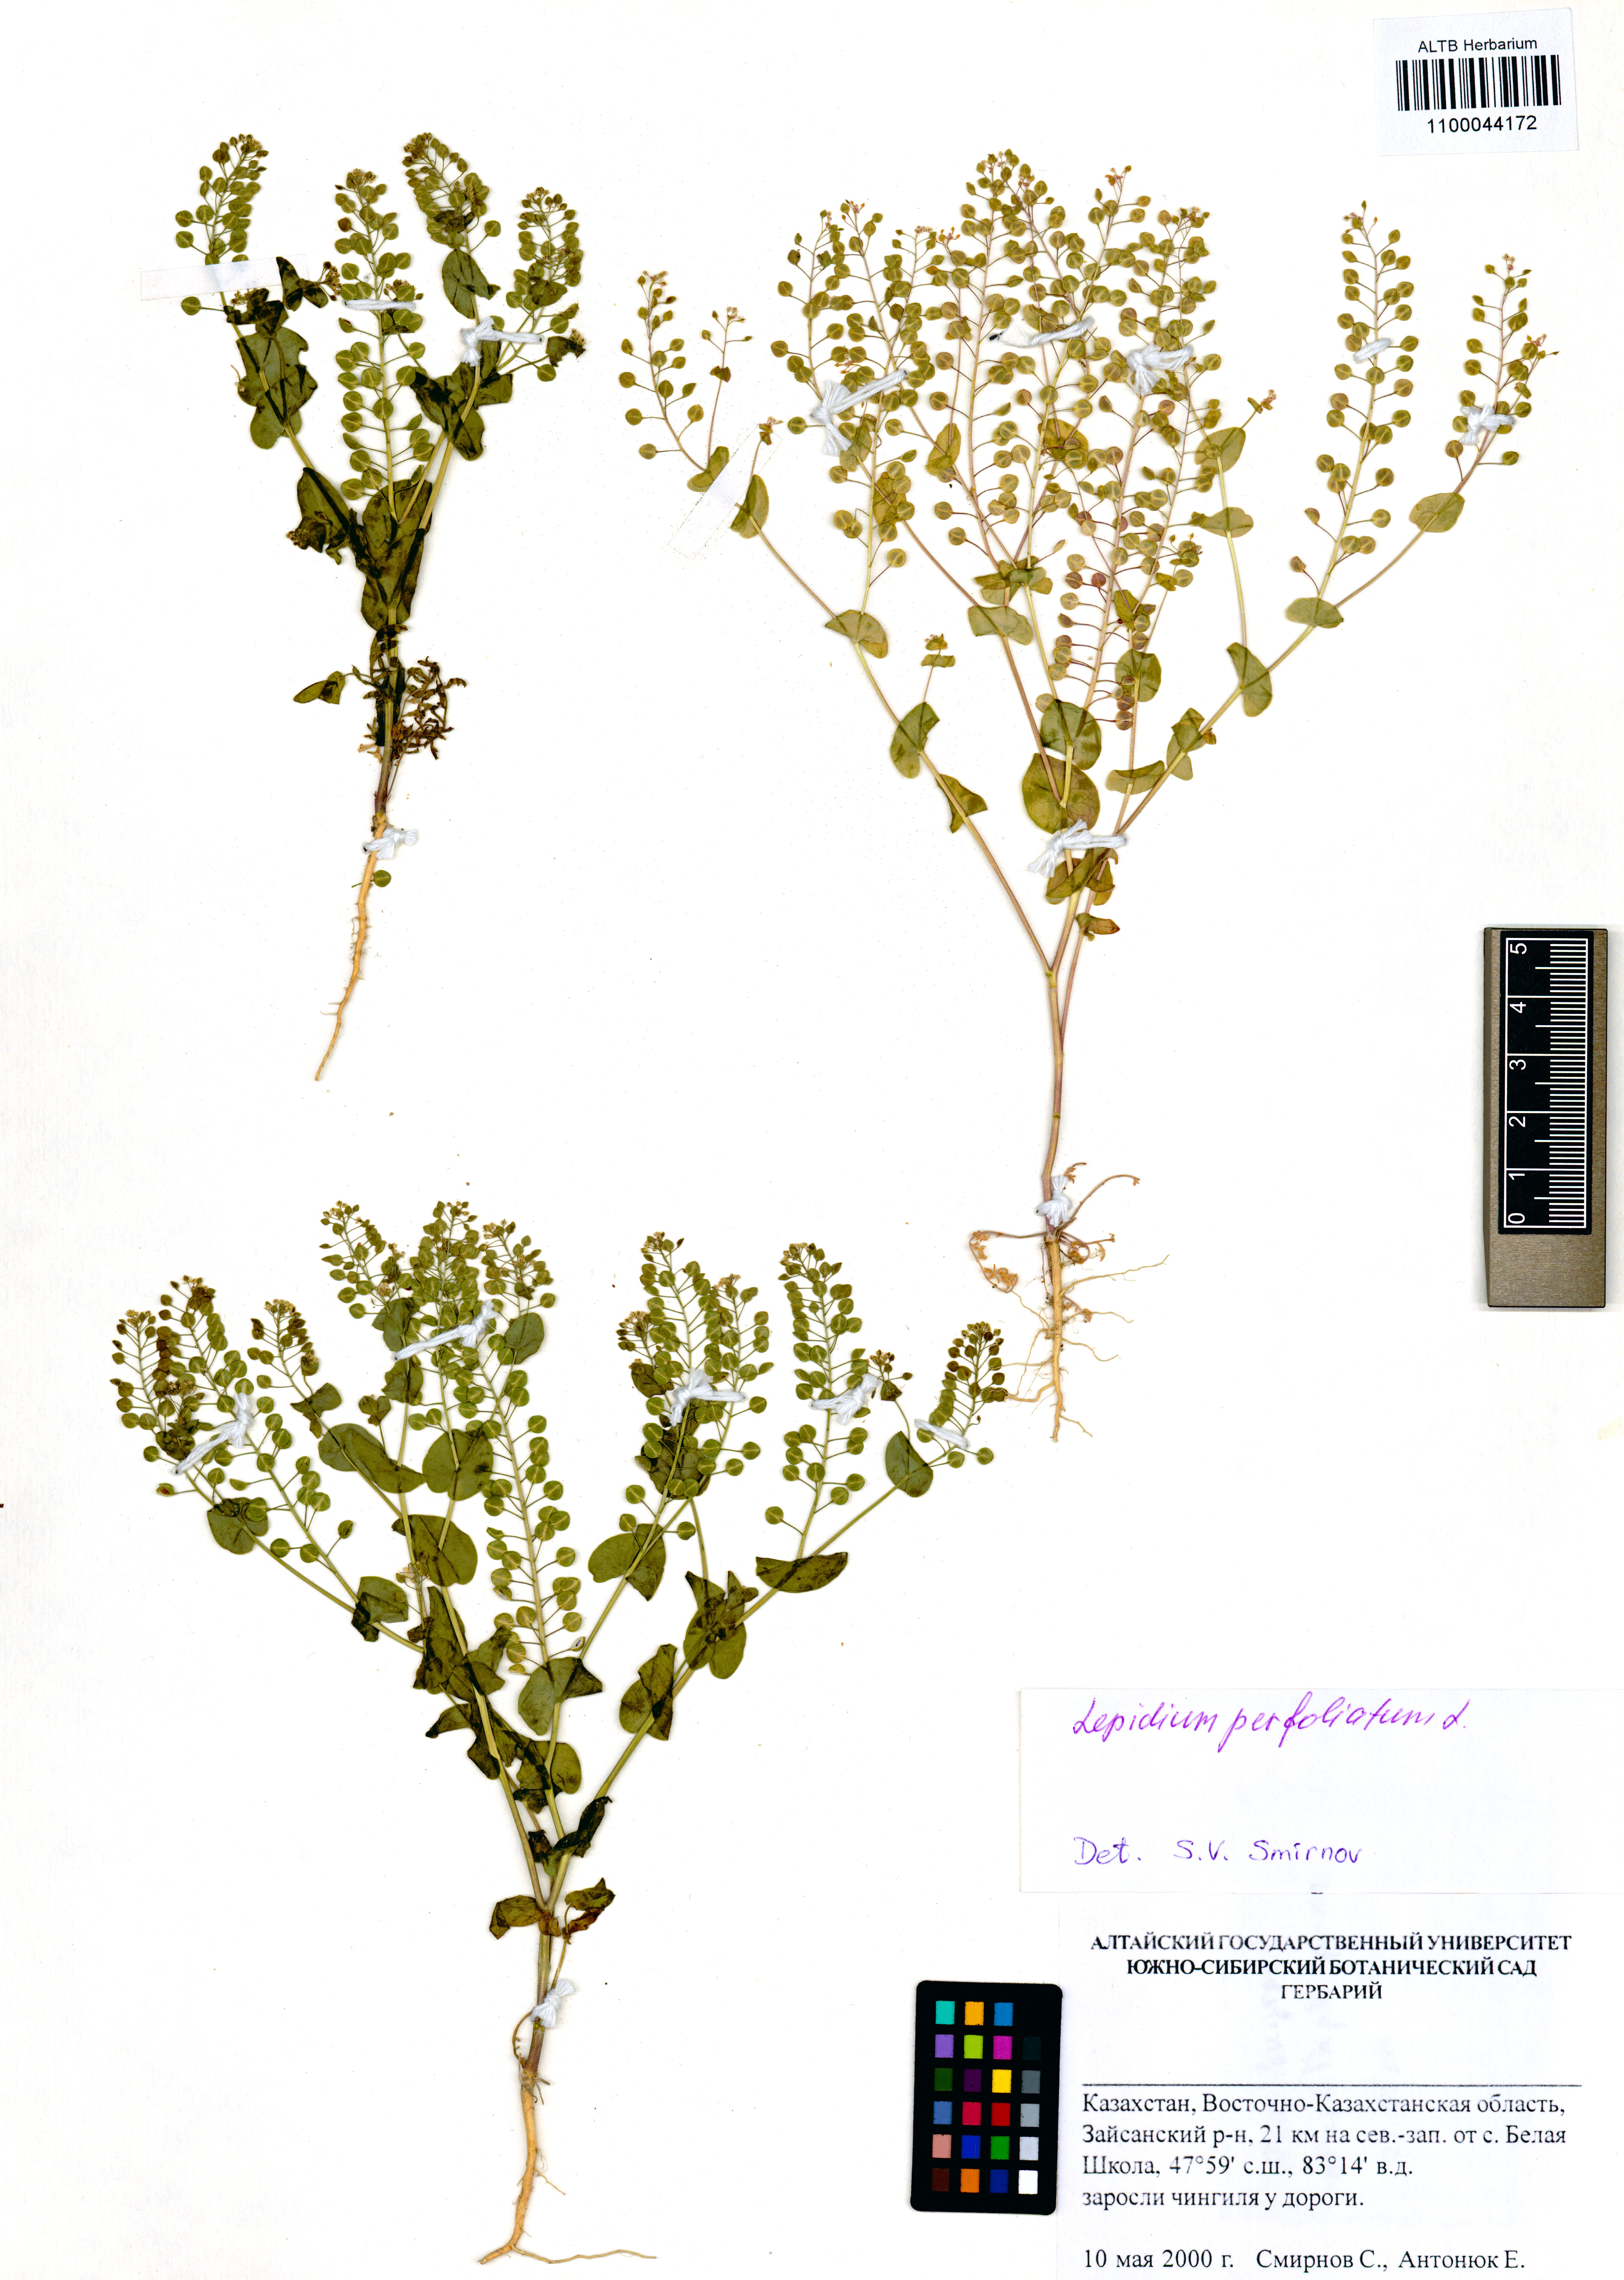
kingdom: Plantae
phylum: Tracheophyta
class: Magnoliopsida
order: Brassicales
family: Brassicaceae
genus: Lepidium
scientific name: Lepidium perfoliatum
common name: Perfoliate pepperwort
